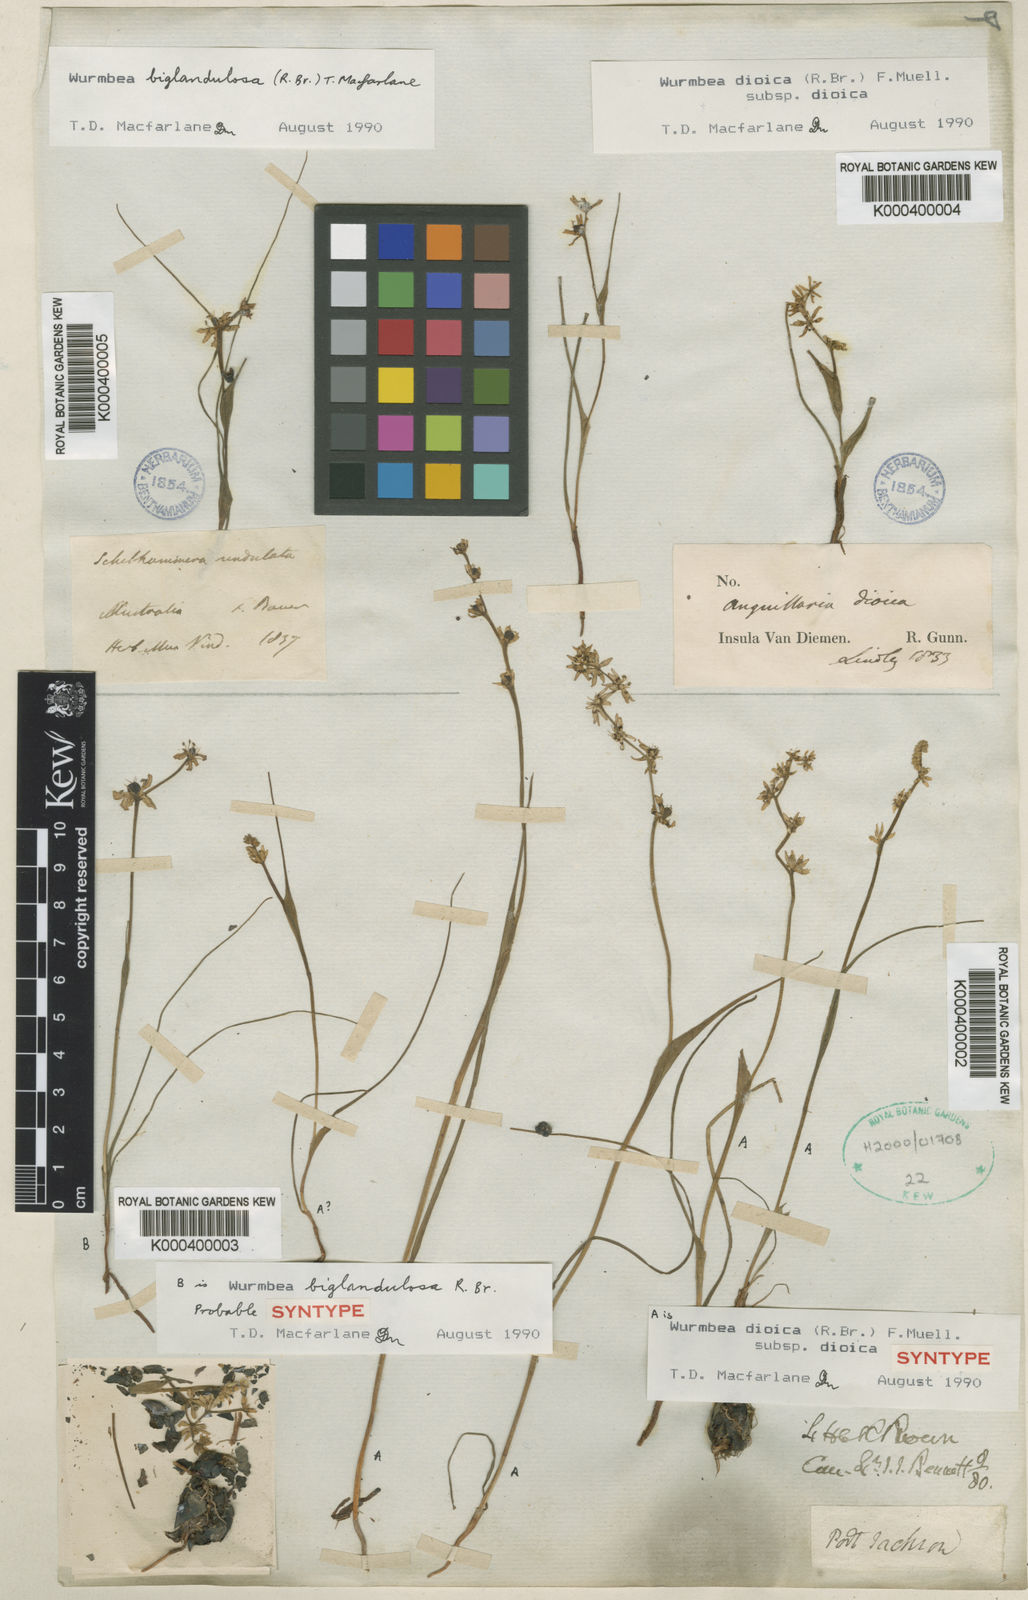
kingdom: Plantae
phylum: Tracheophyta
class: Liliopsida
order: Liliales
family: Colchicaceae
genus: Wurmbea
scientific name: Wurmbea dioica
